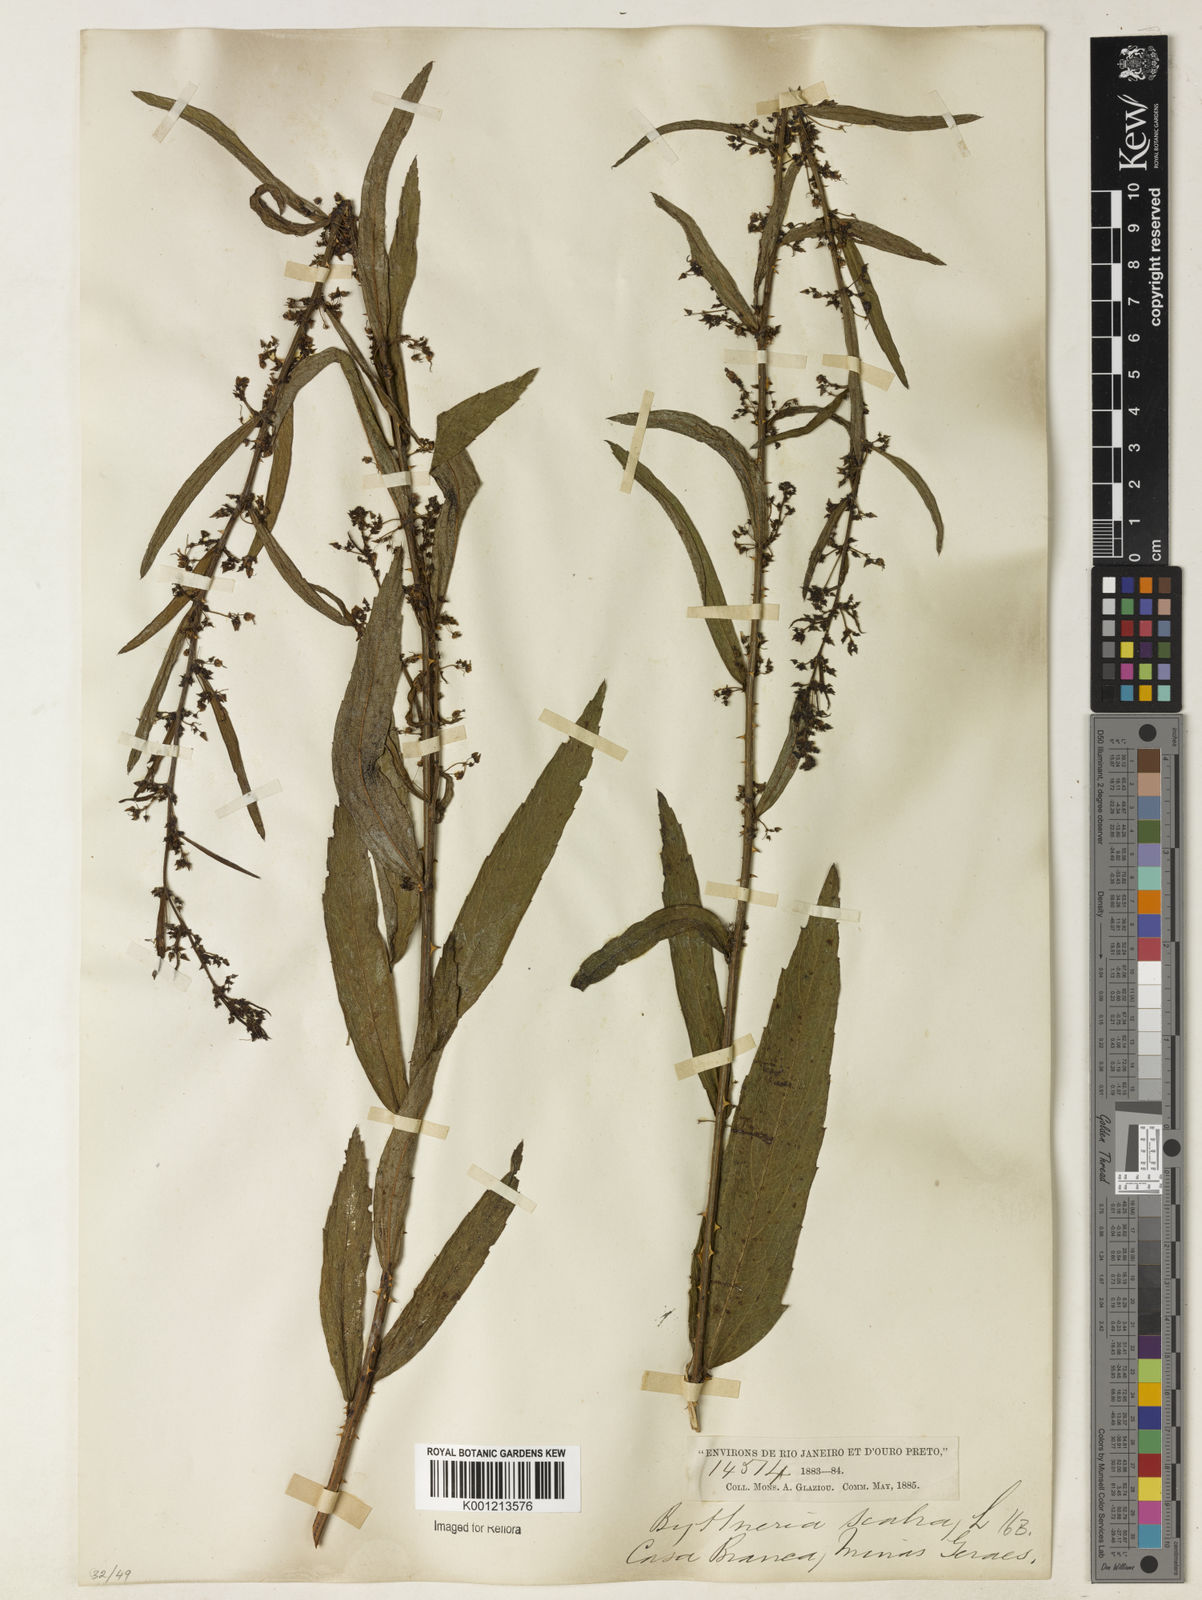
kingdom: Plantae
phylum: Tracheophyta
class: Magnoliopsida
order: Malvales
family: Malvaceae
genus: Byttneria
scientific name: Byttneria
